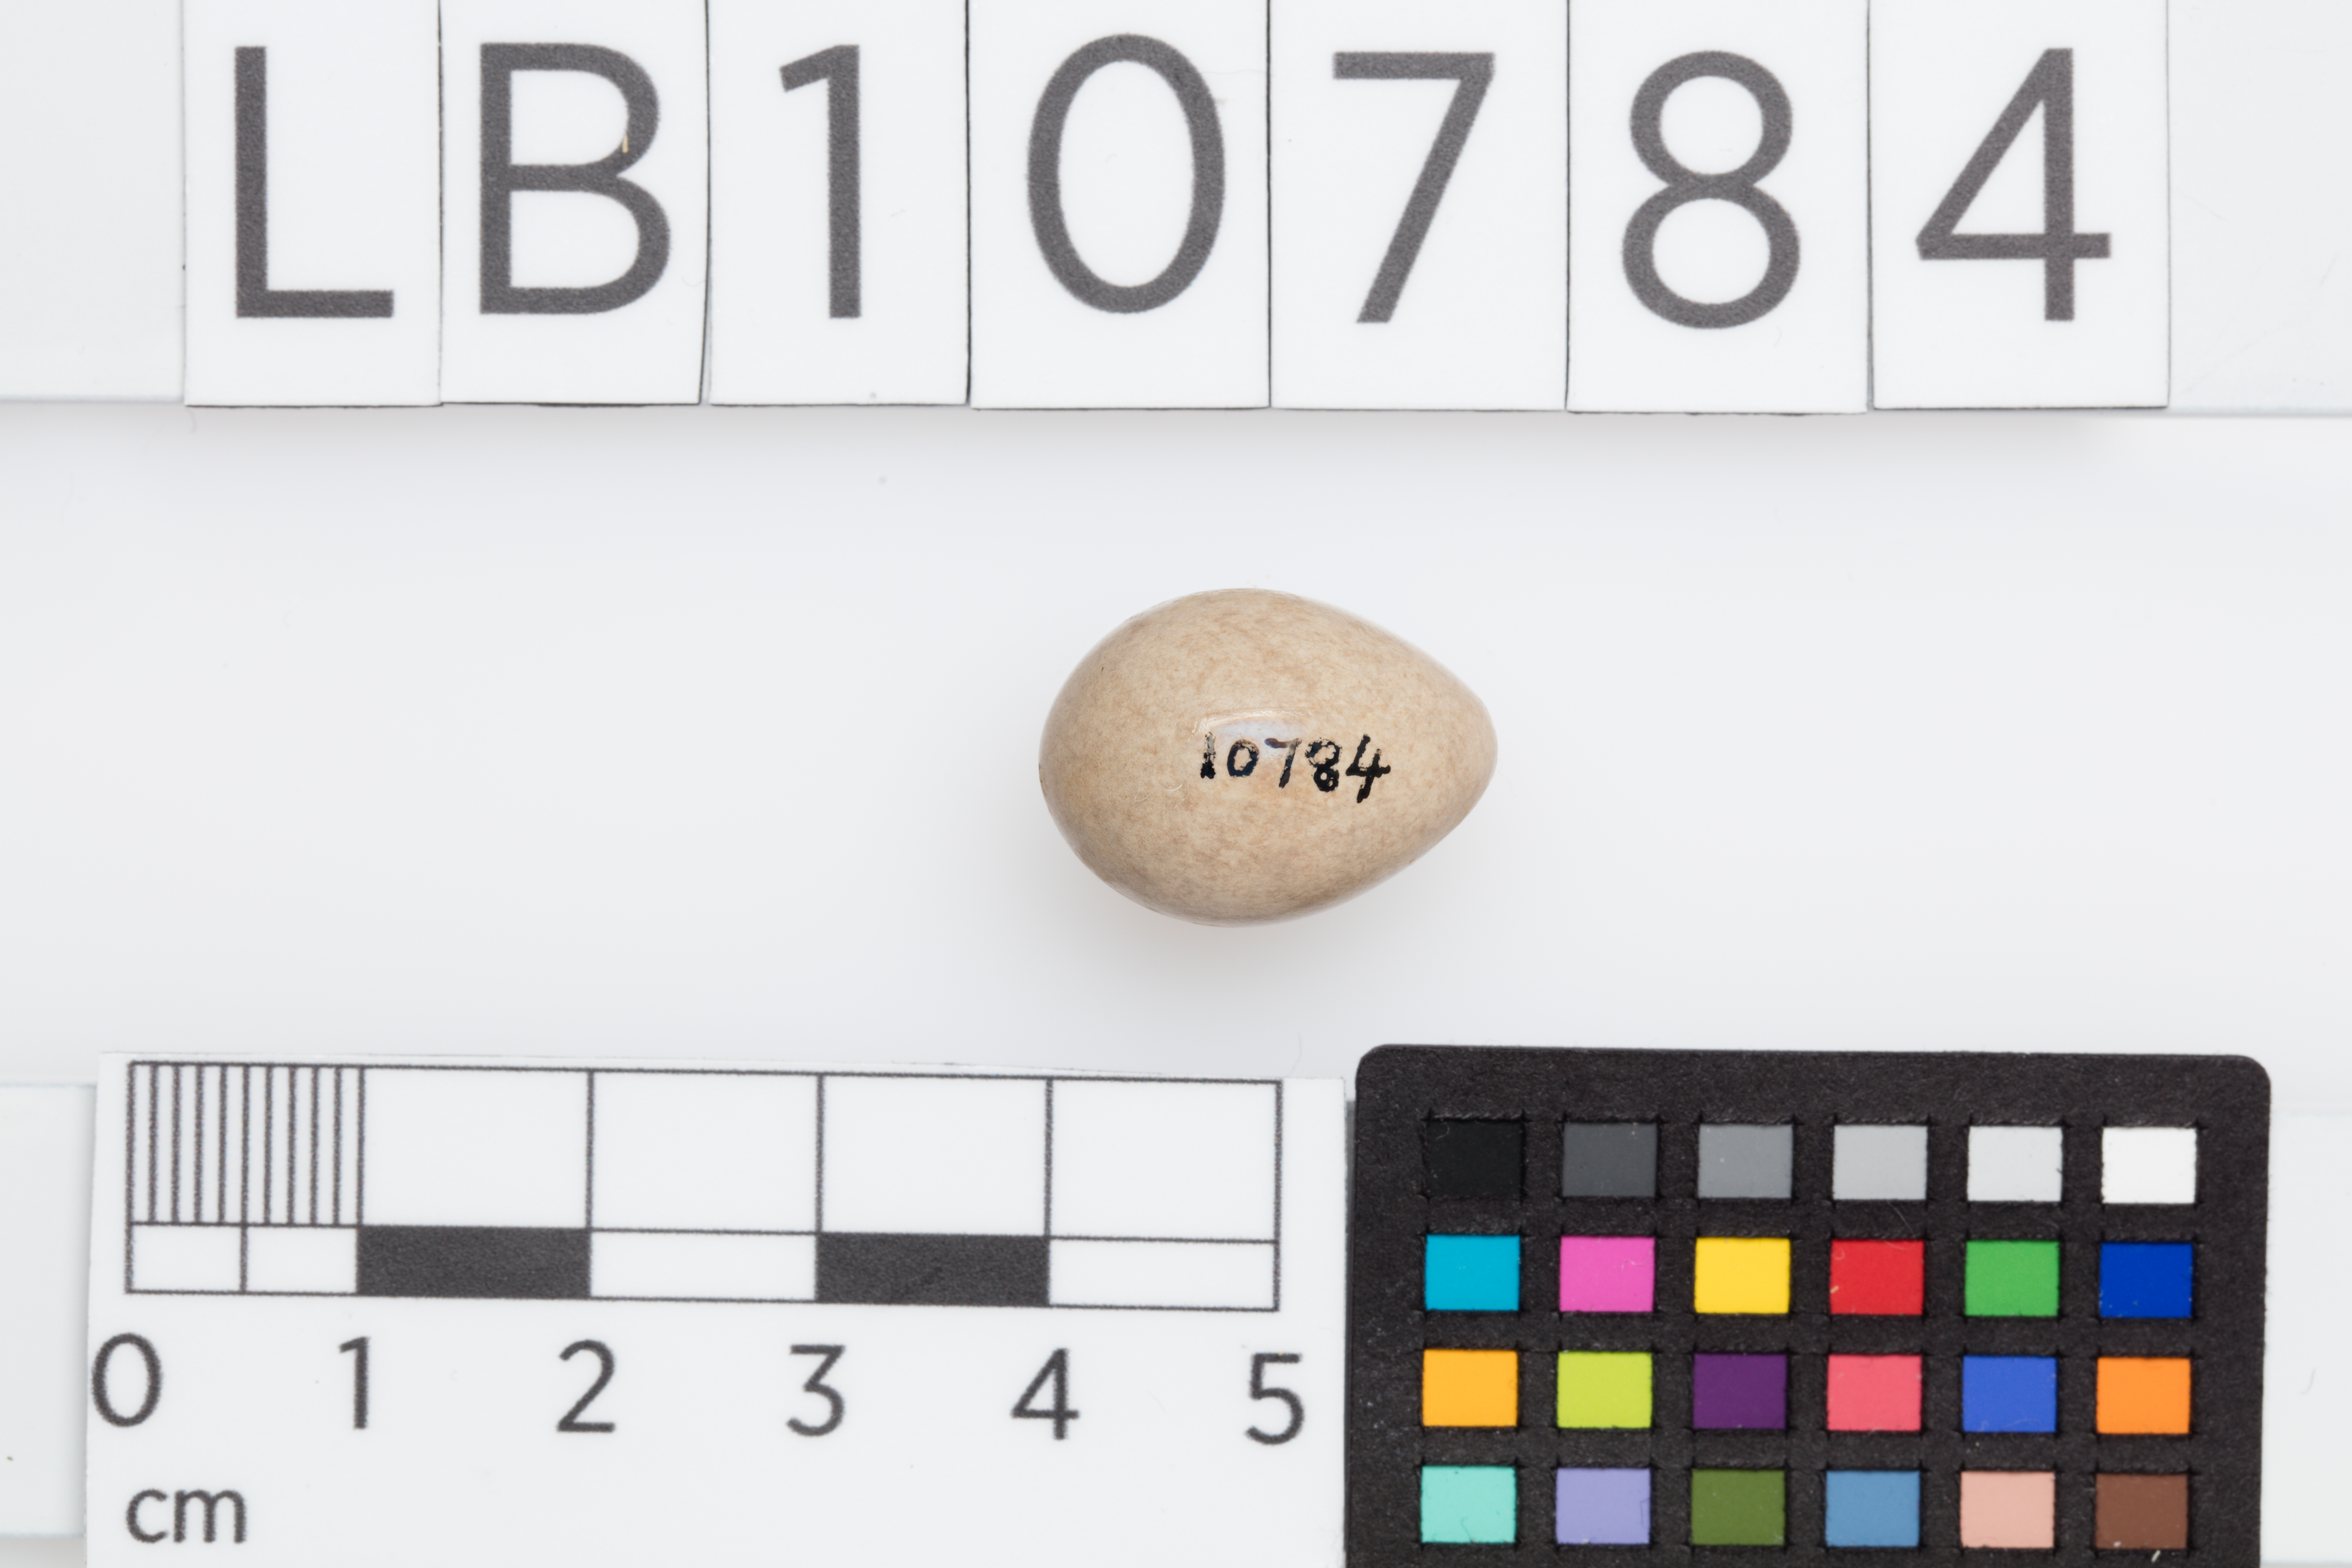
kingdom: Animalia
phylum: Chordata
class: Aves
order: Passeriformes
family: Motacillidae
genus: Motacilla
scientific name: Motacilla flava
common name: Western yellow wagtail
